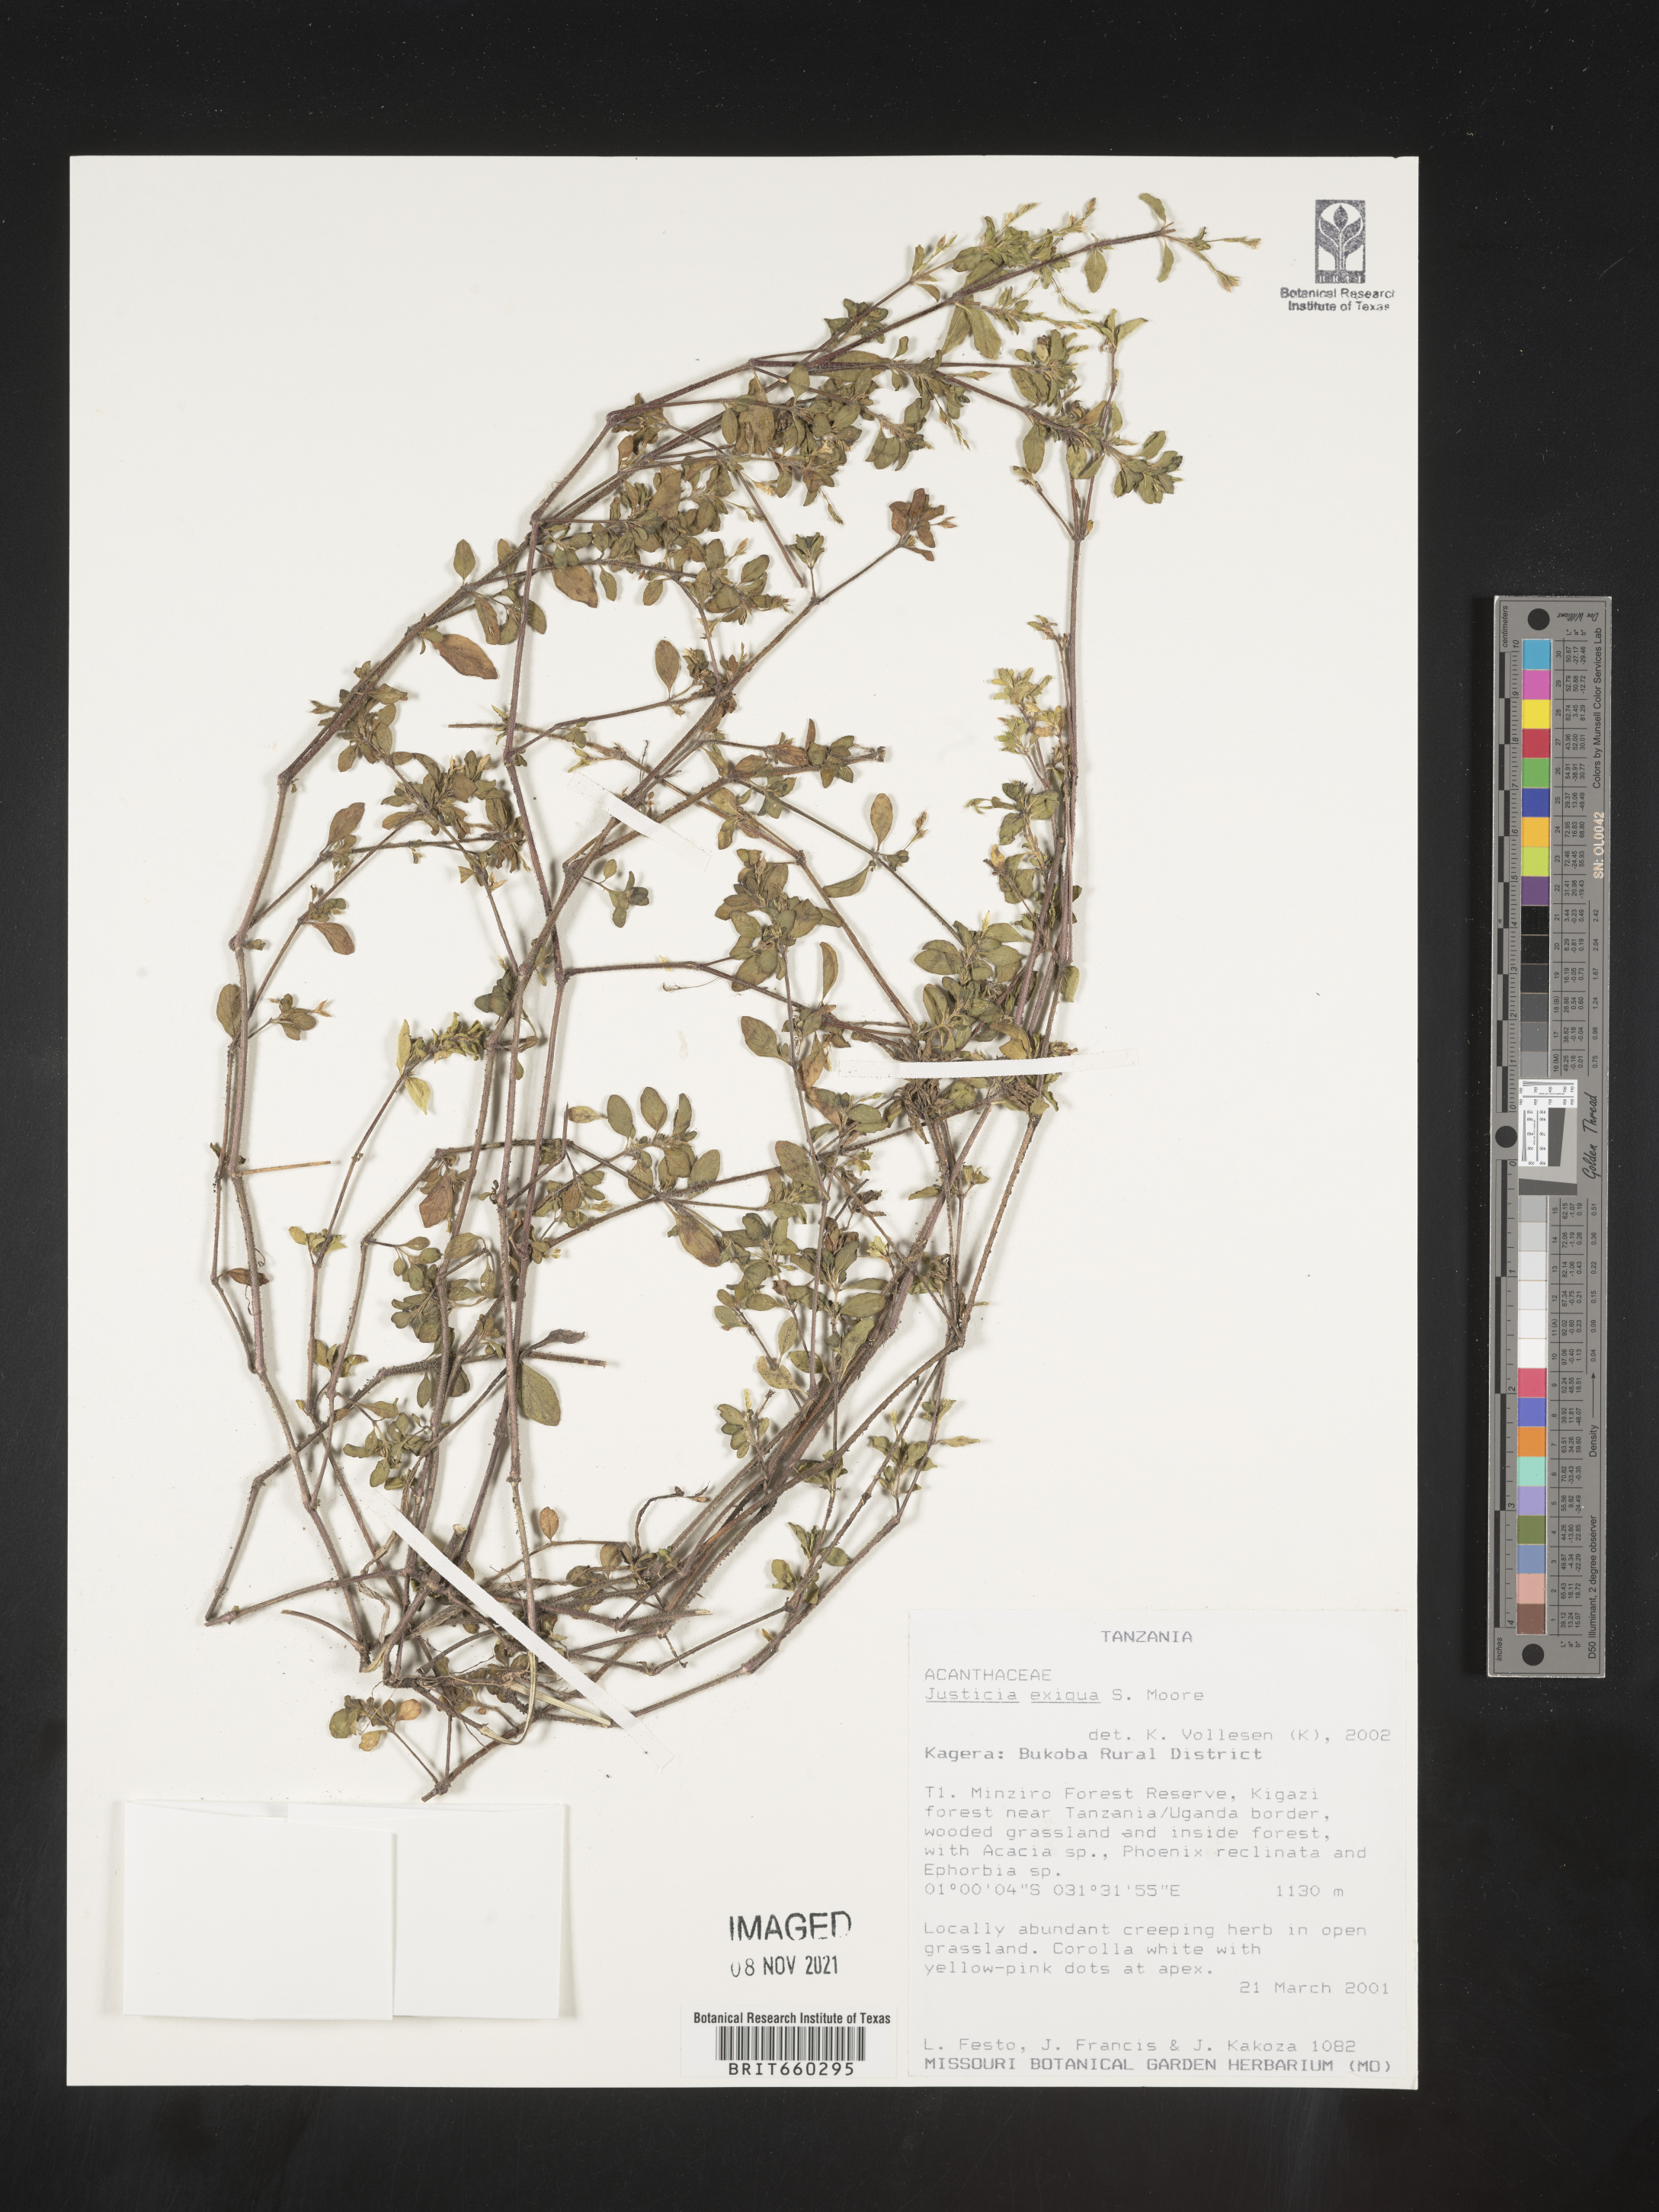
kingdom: Plantae
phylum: Tracheophyta
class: Magnoliopsida
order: Lamiales
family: Acanthaceae
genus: Justicia
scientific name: Justicia
